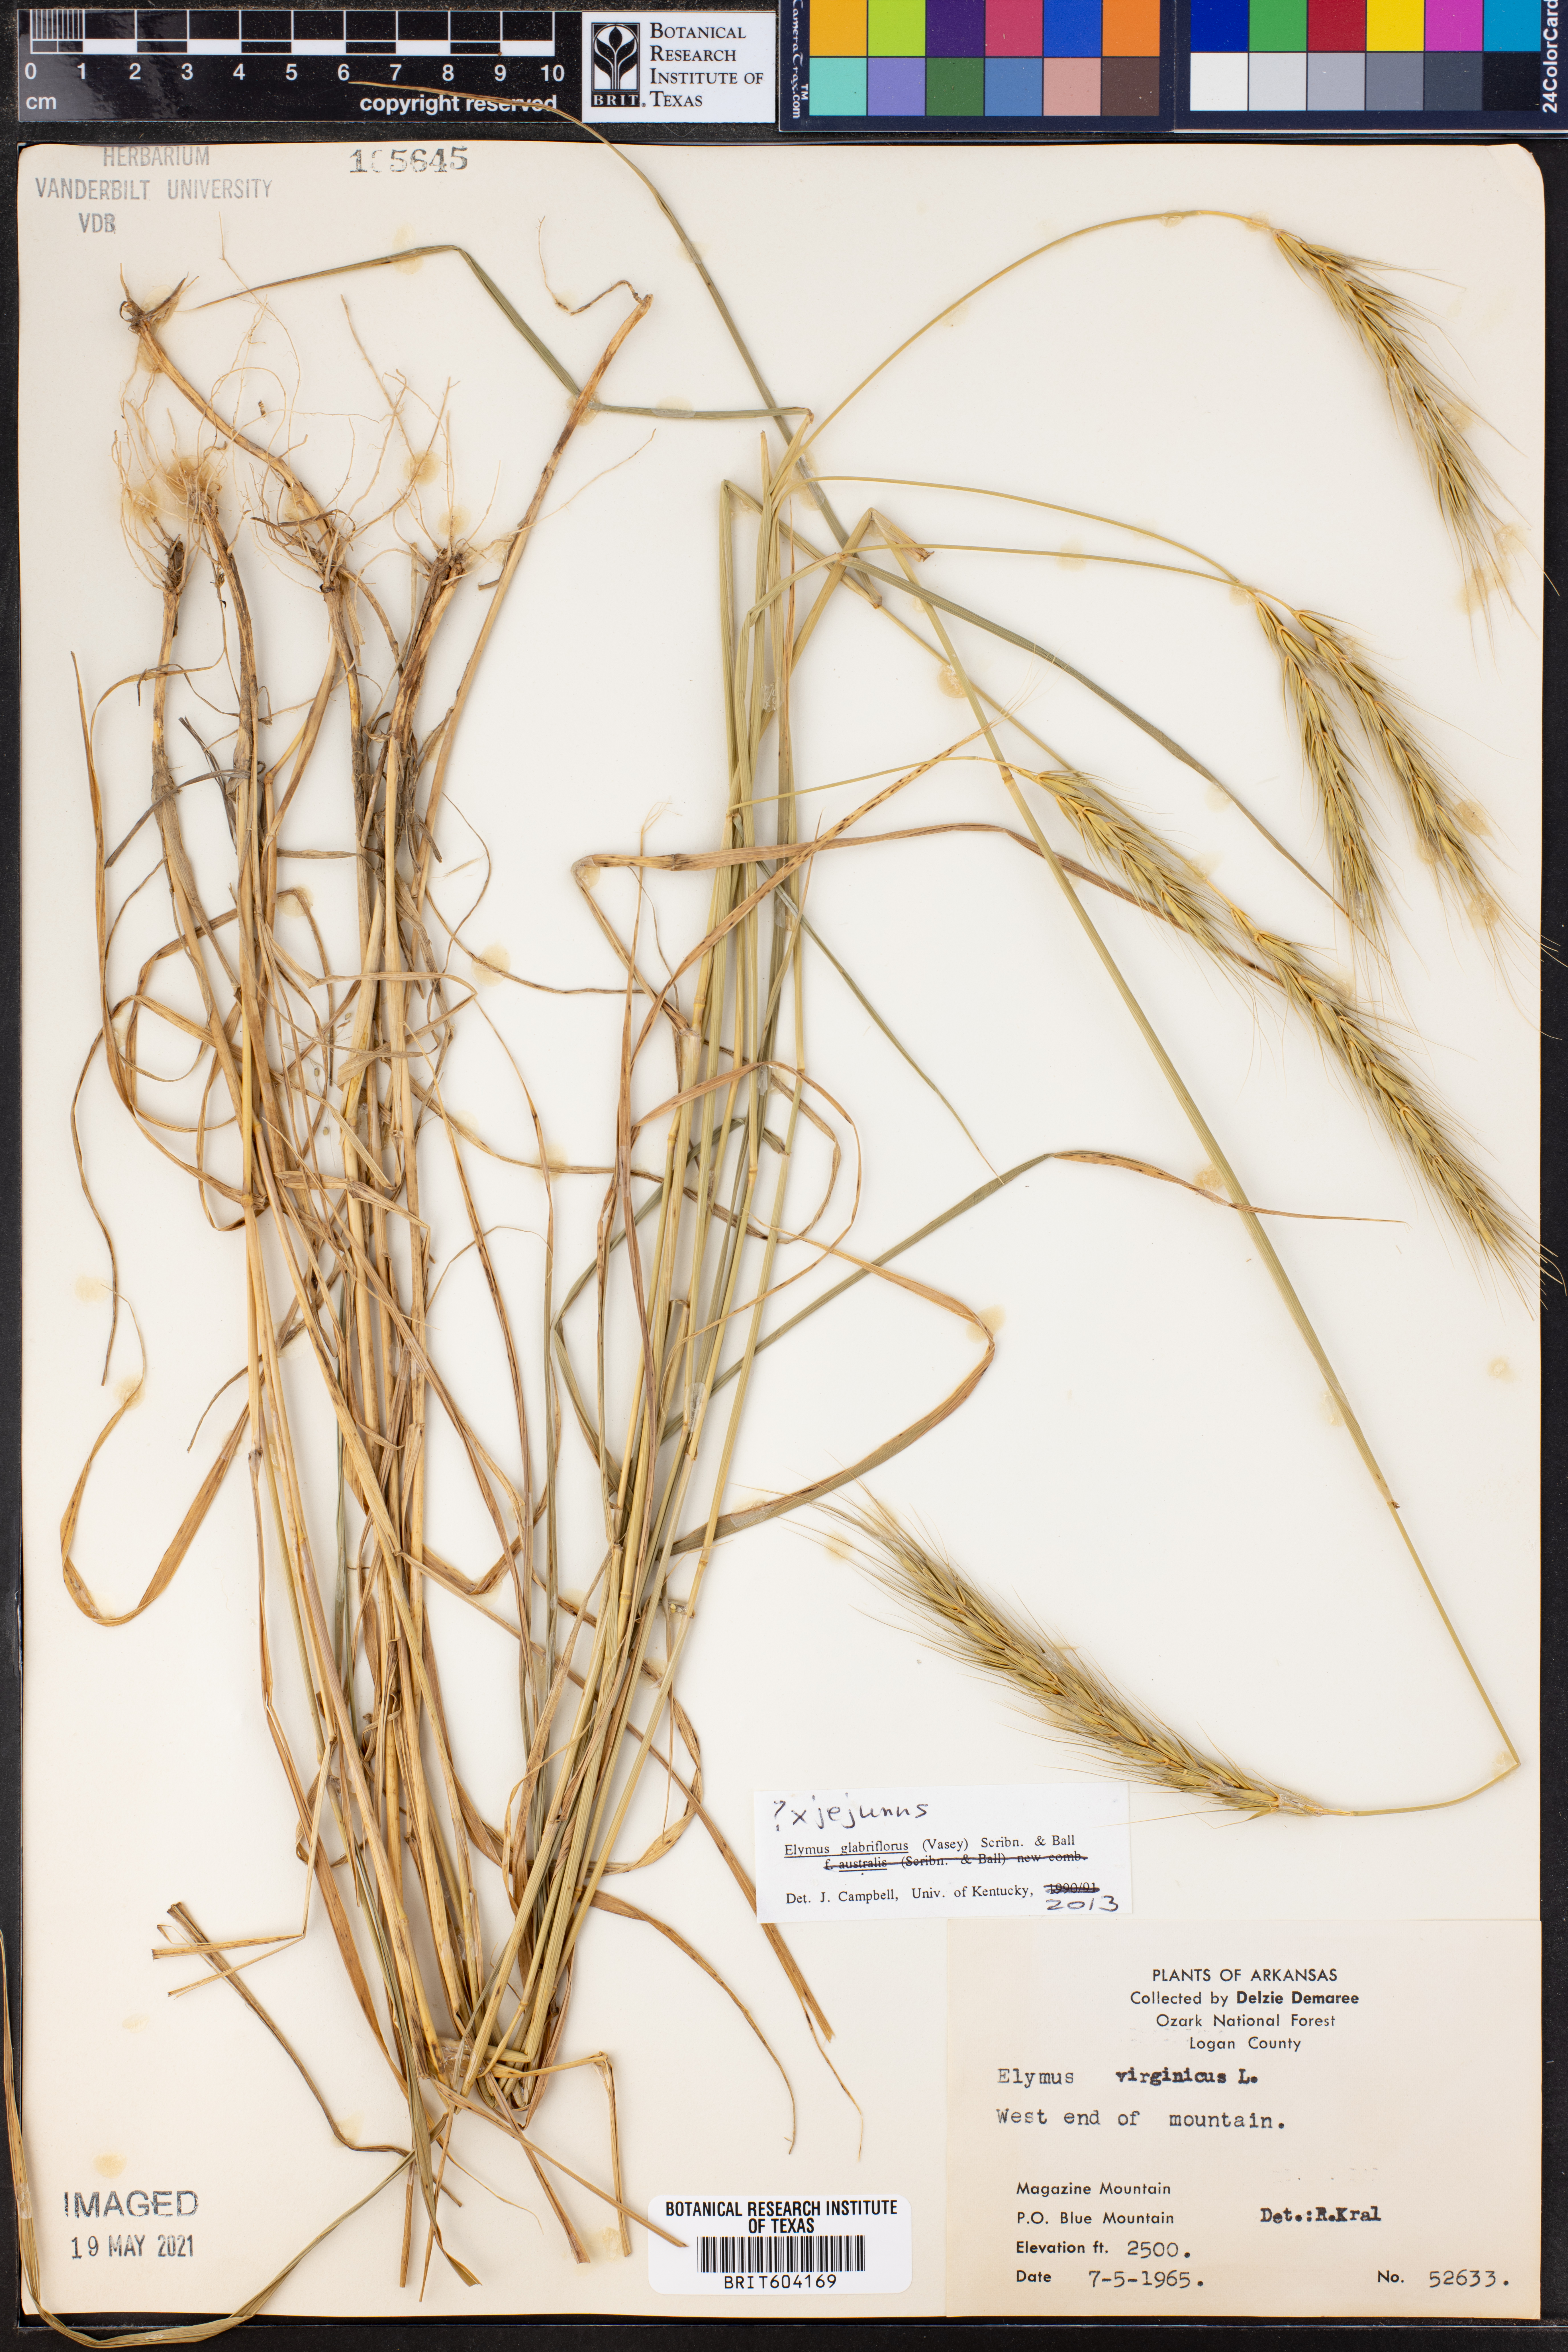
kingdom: Plantae
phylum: Tracheophyta
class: Liliopsida
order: Poales
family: Poaceae
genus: Elymus
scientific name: Elymus virginicus
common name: Common eastern wildrye
